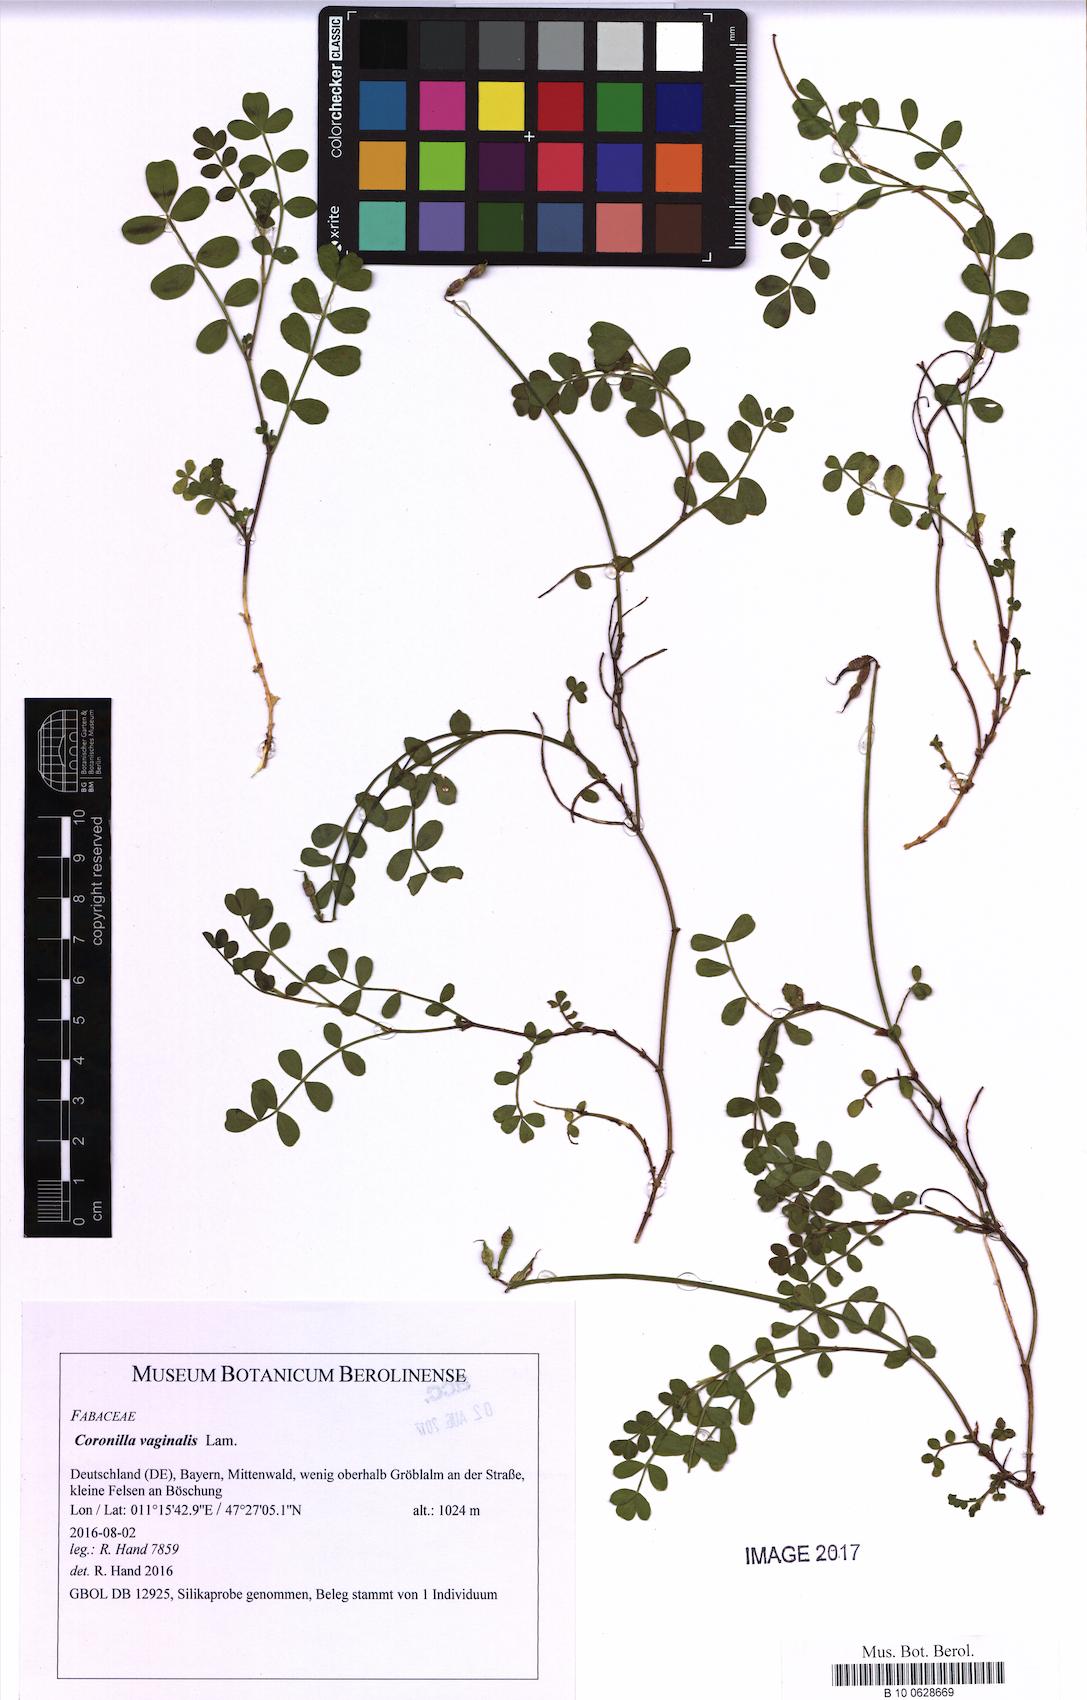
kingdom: Plantae
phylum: Tracheophyta
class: Magnoliopsida
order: Fabales
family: Fabaceae
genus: Coronilla
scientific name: Coronilla vaginalis
